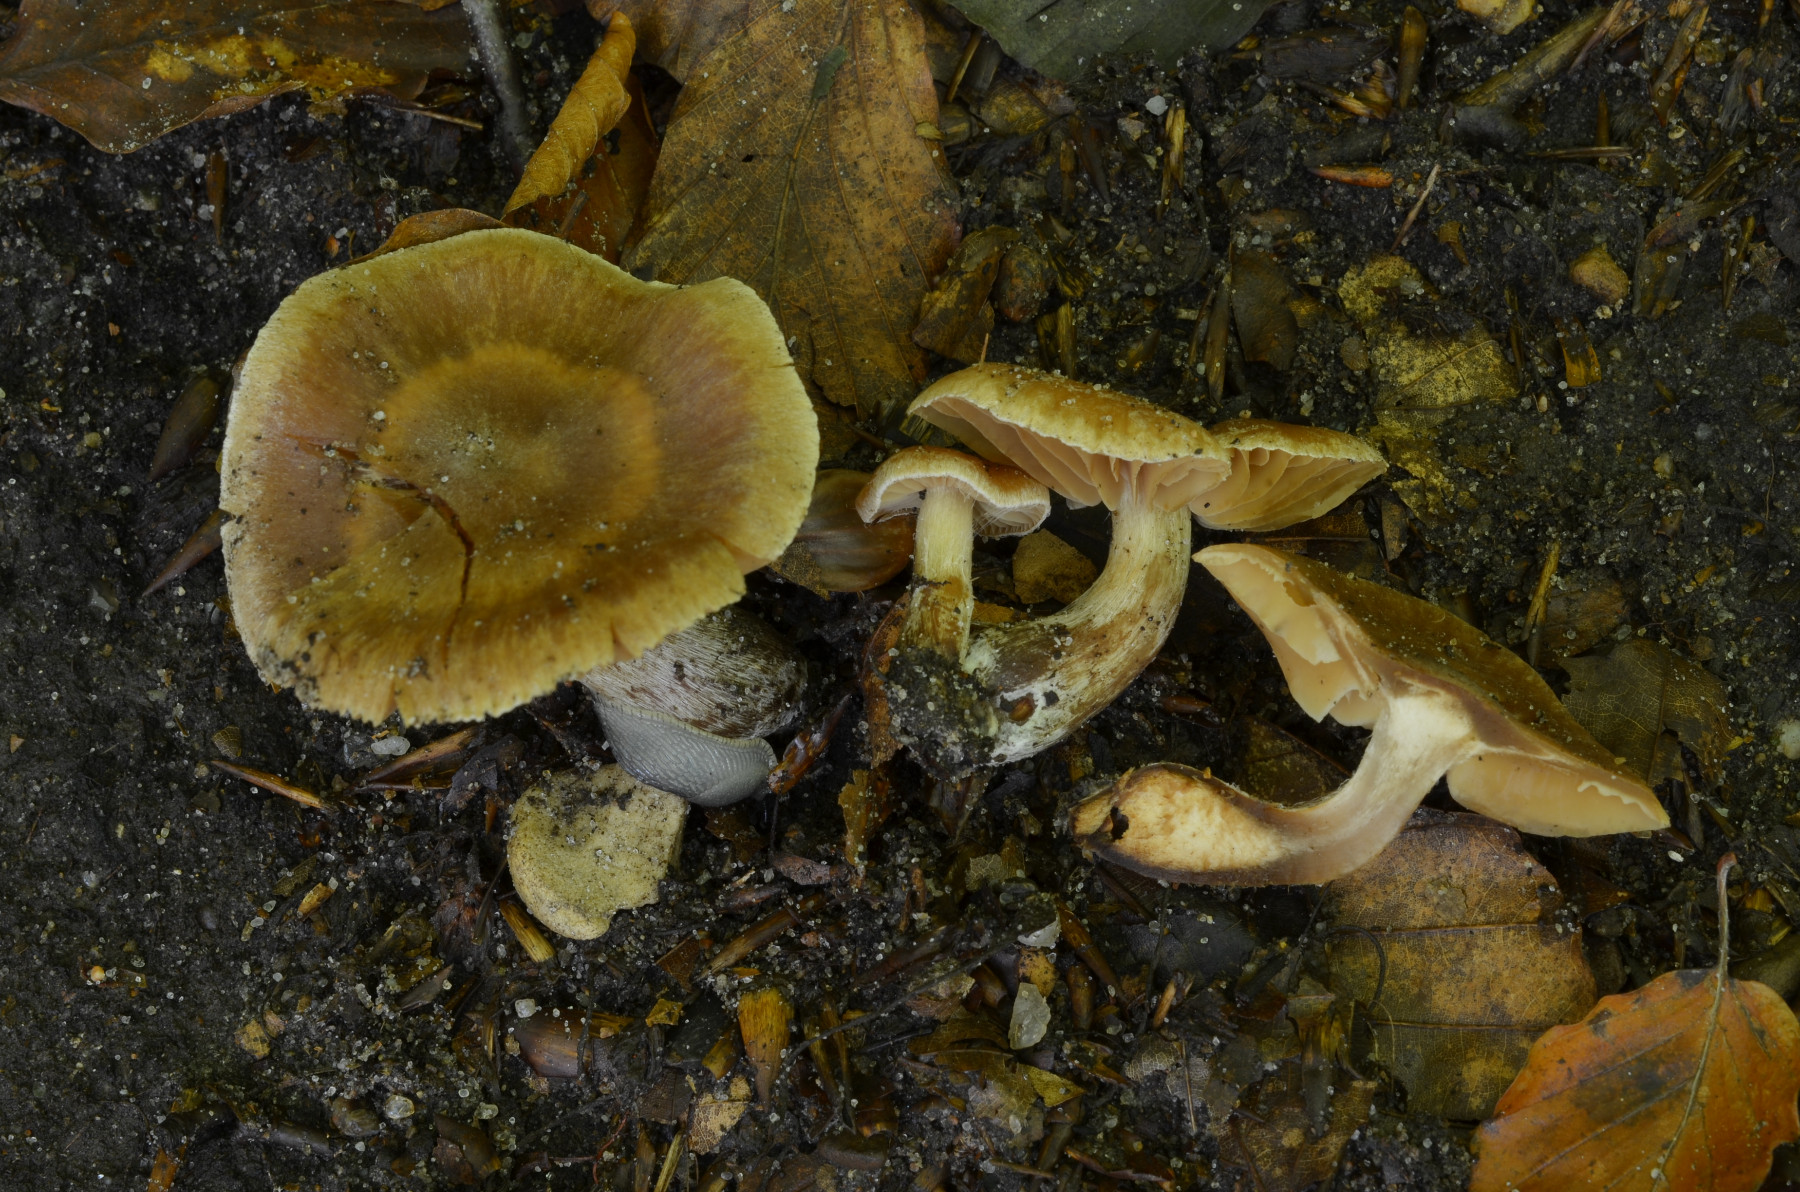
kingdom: Fungi
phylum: Basidiomycota
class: Agaricomycetes
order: Agaricales
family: Cortinariaceae
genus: Cortinarius
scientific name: Cortinarius epipurrus
